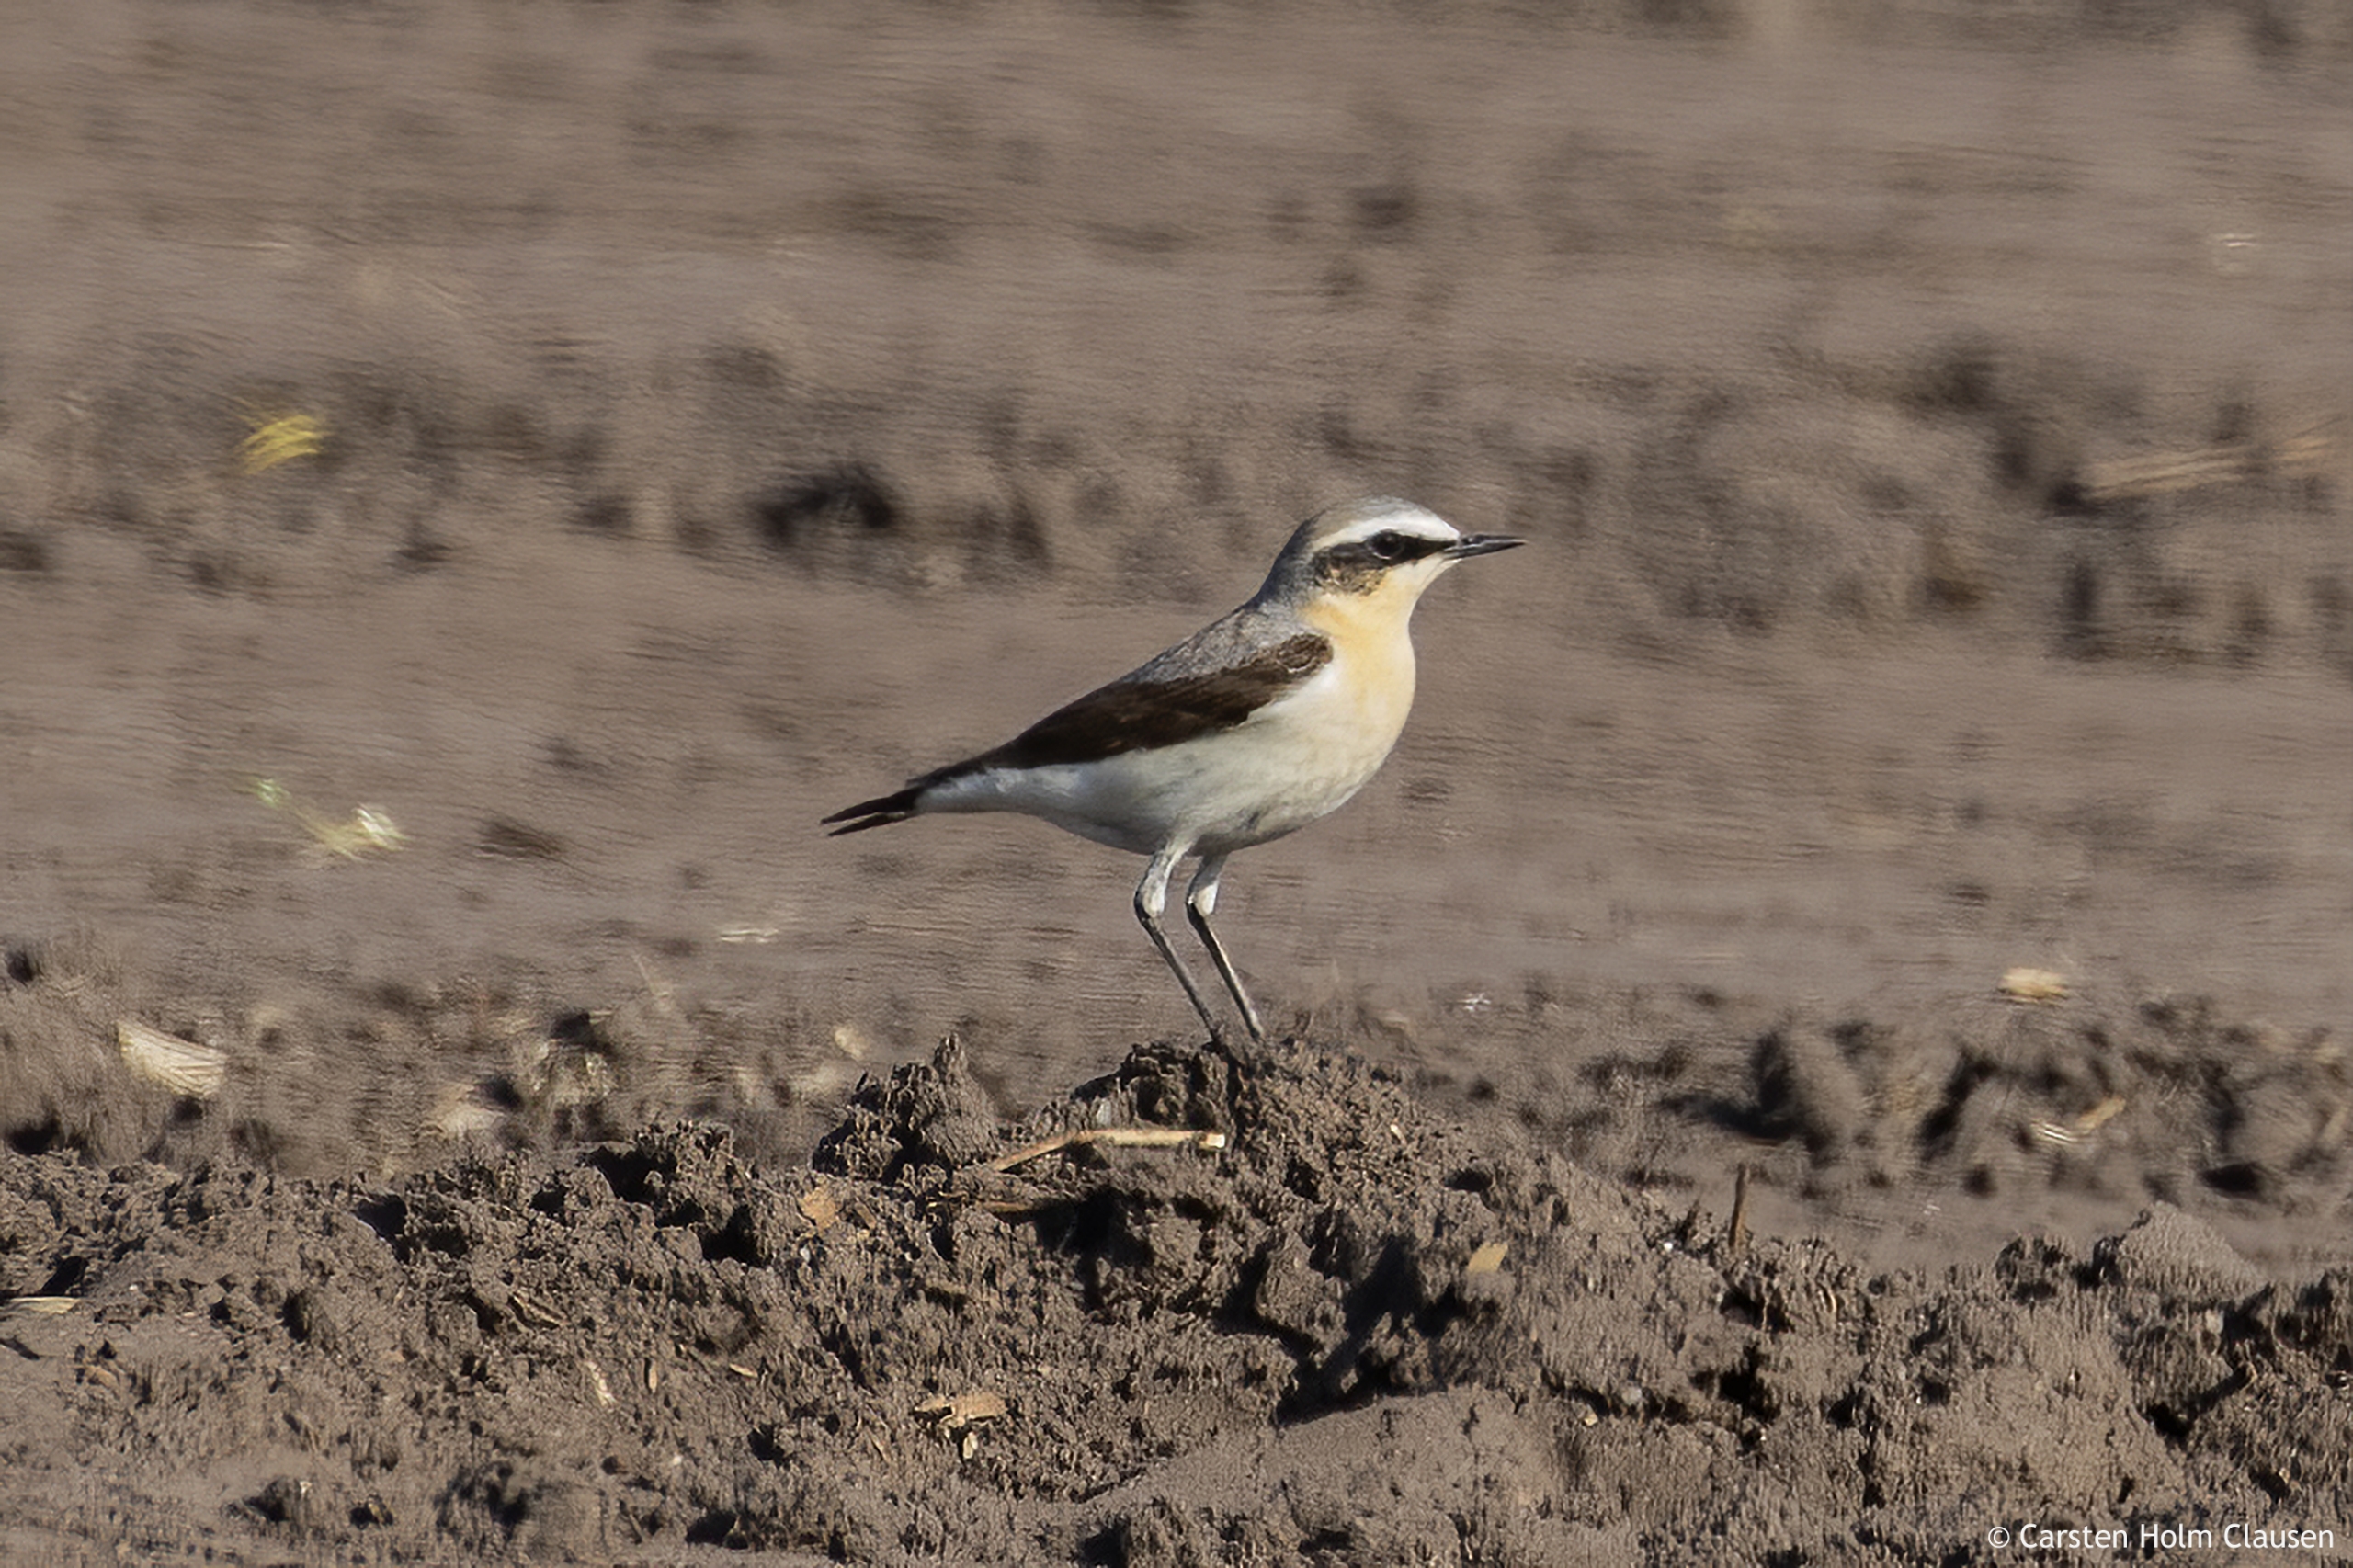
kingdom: Animalia
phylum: Chordata
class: Aves
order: Passeriformes
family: Muscicapidae
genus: Oenanthe
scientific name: Oenanthe oenanthe
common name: Stenpikker
